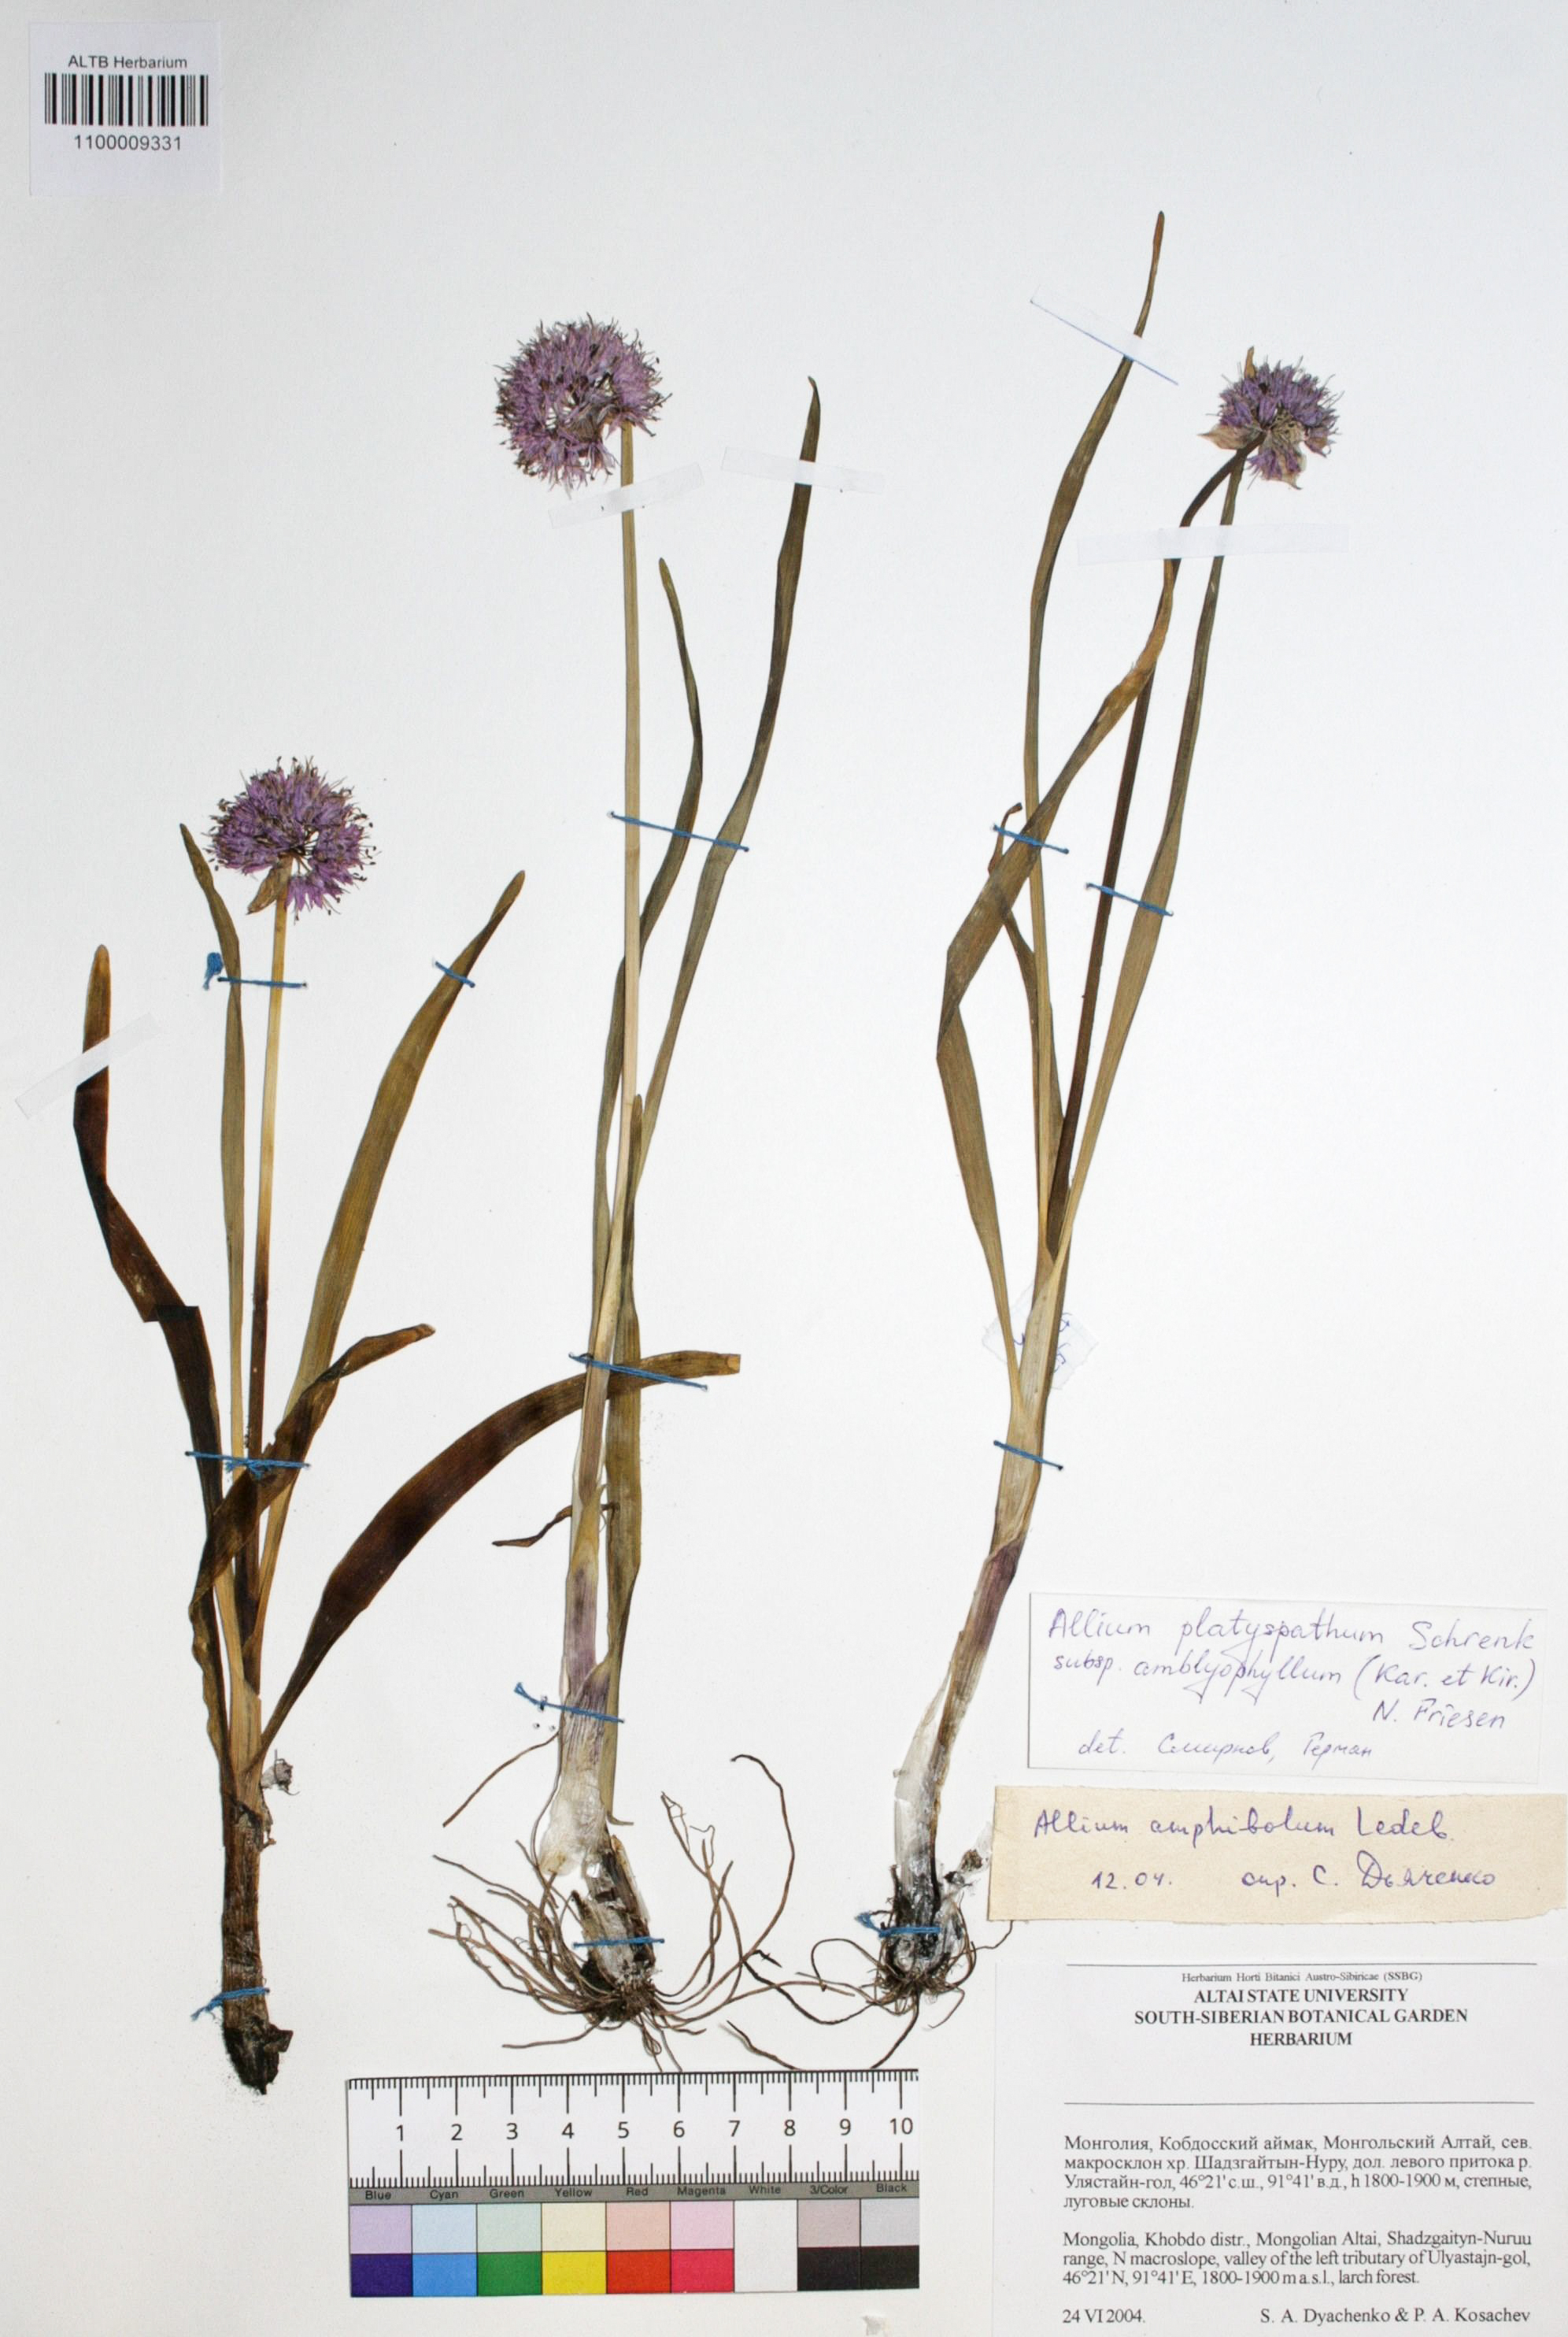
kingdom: Plantae
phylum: Tracheophyta
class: Liliopsida
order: Asparagales
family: Amaryllidaceae
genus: Allium
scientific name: Allium platyspathum
